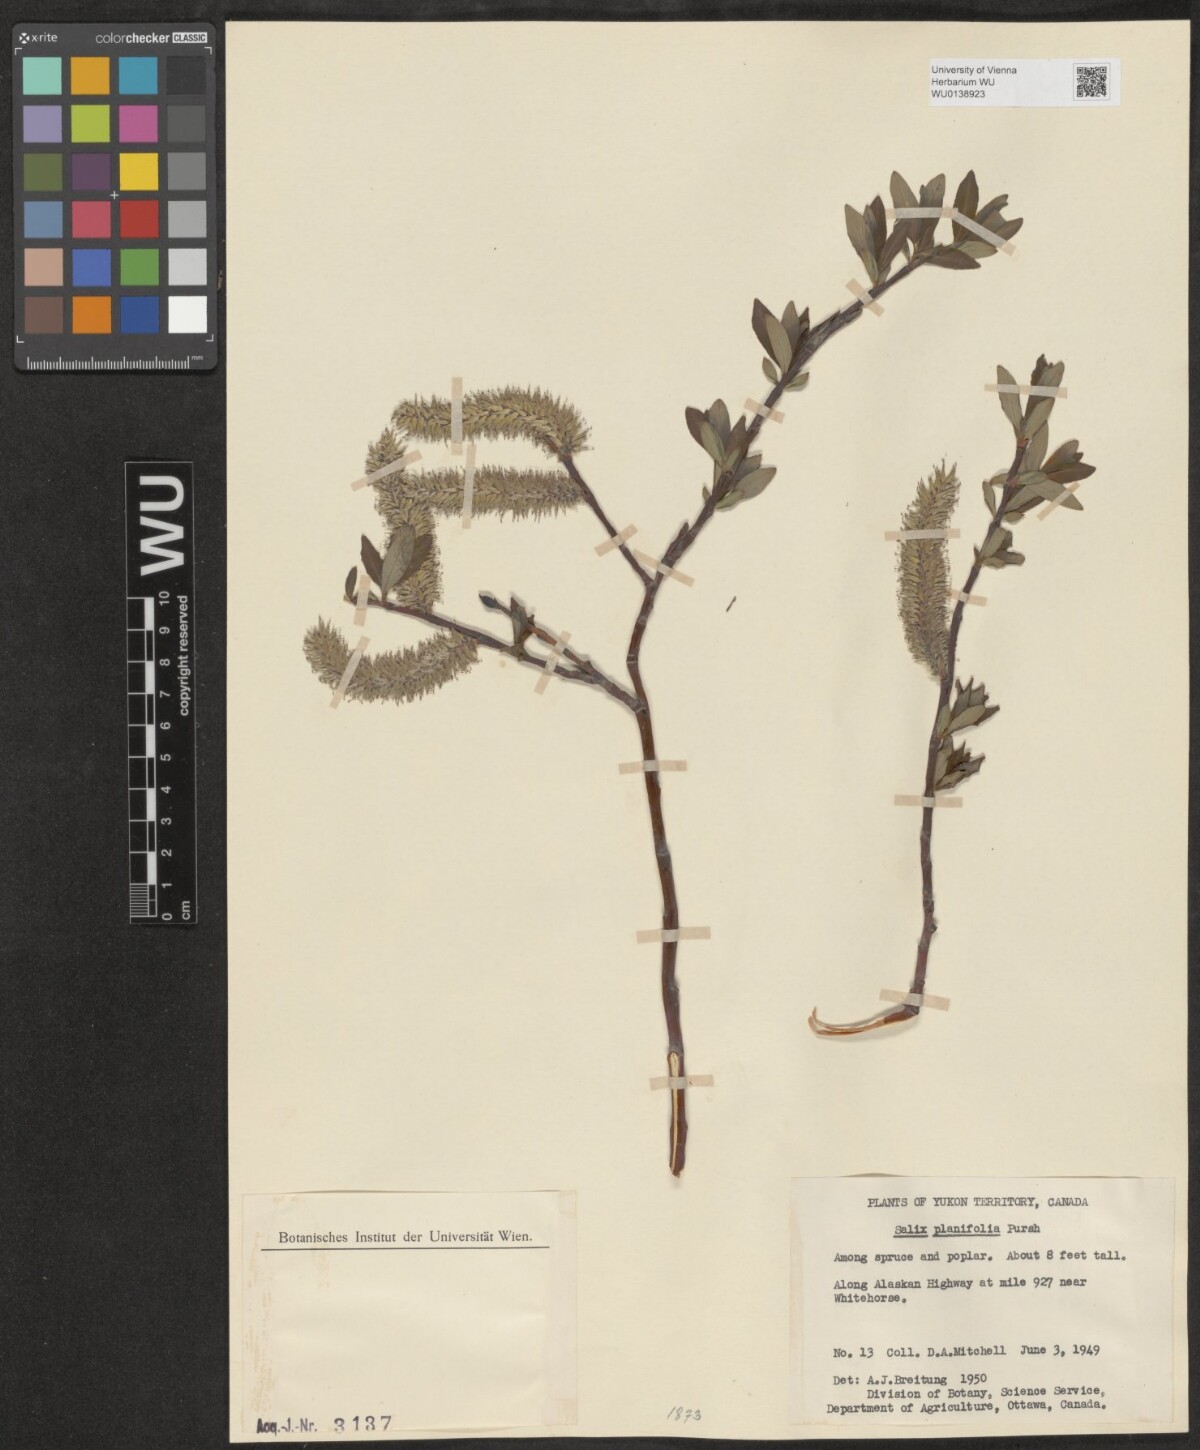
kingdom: Plantae
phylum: Tracheophyta
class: Magnoliopsida
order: Malpighiales
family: Salicaceae
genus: Salix
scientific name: Salix planifolia
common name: Mountain willow
